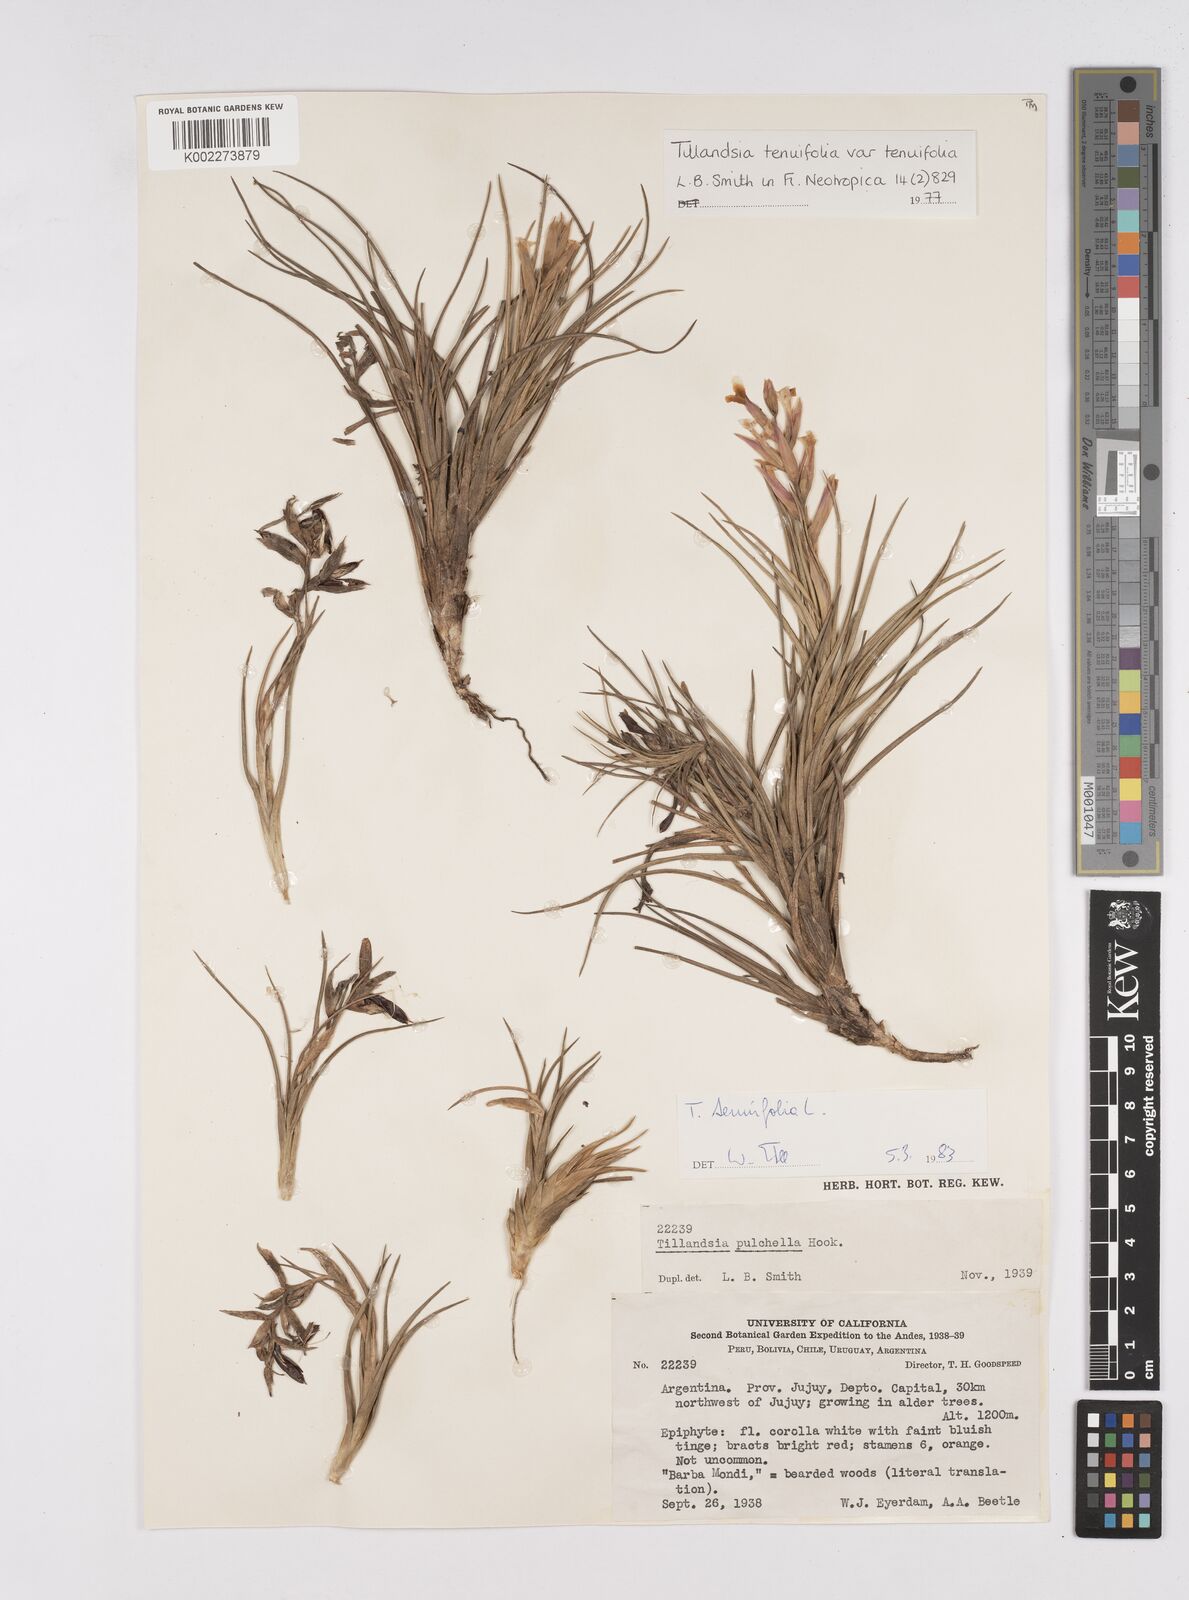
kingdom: Plantae
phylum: Tracheophyta
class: Liliopsida
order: Poales
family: Bromeliaceae
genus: Tillandsia
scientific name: Tillandsia tenuifolia
